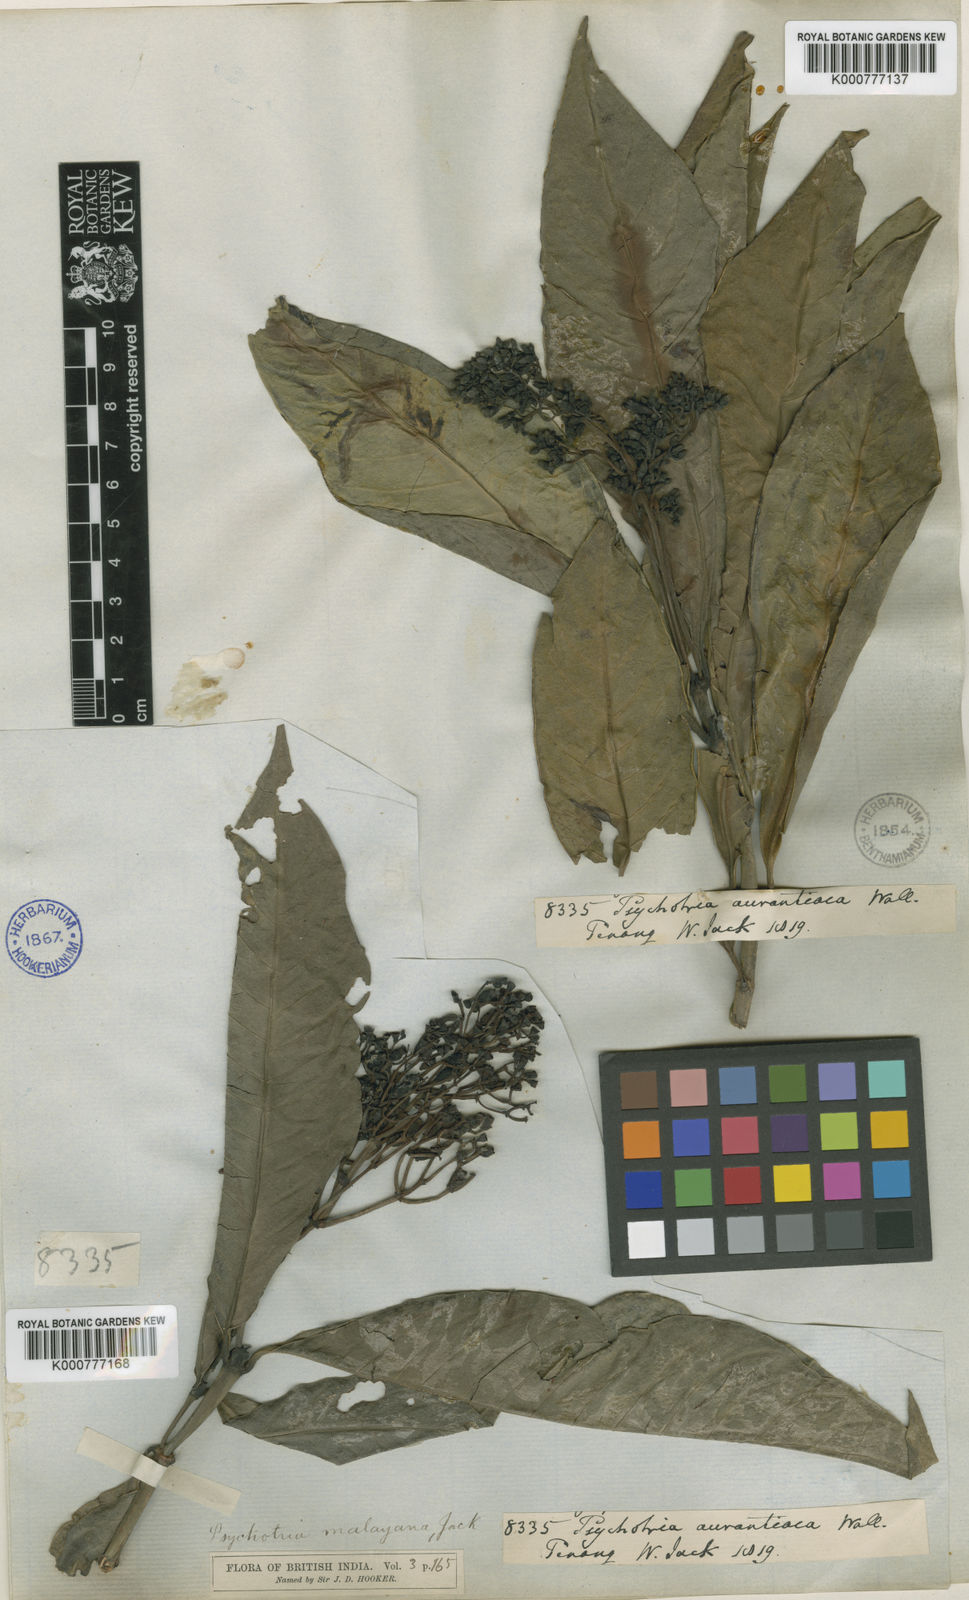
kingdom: Plantae
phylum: Tracheophyta
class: Magnoliopsida
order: Gentianales
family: Rubiaceae
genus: Psychotria
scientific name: Psychotria malayana
